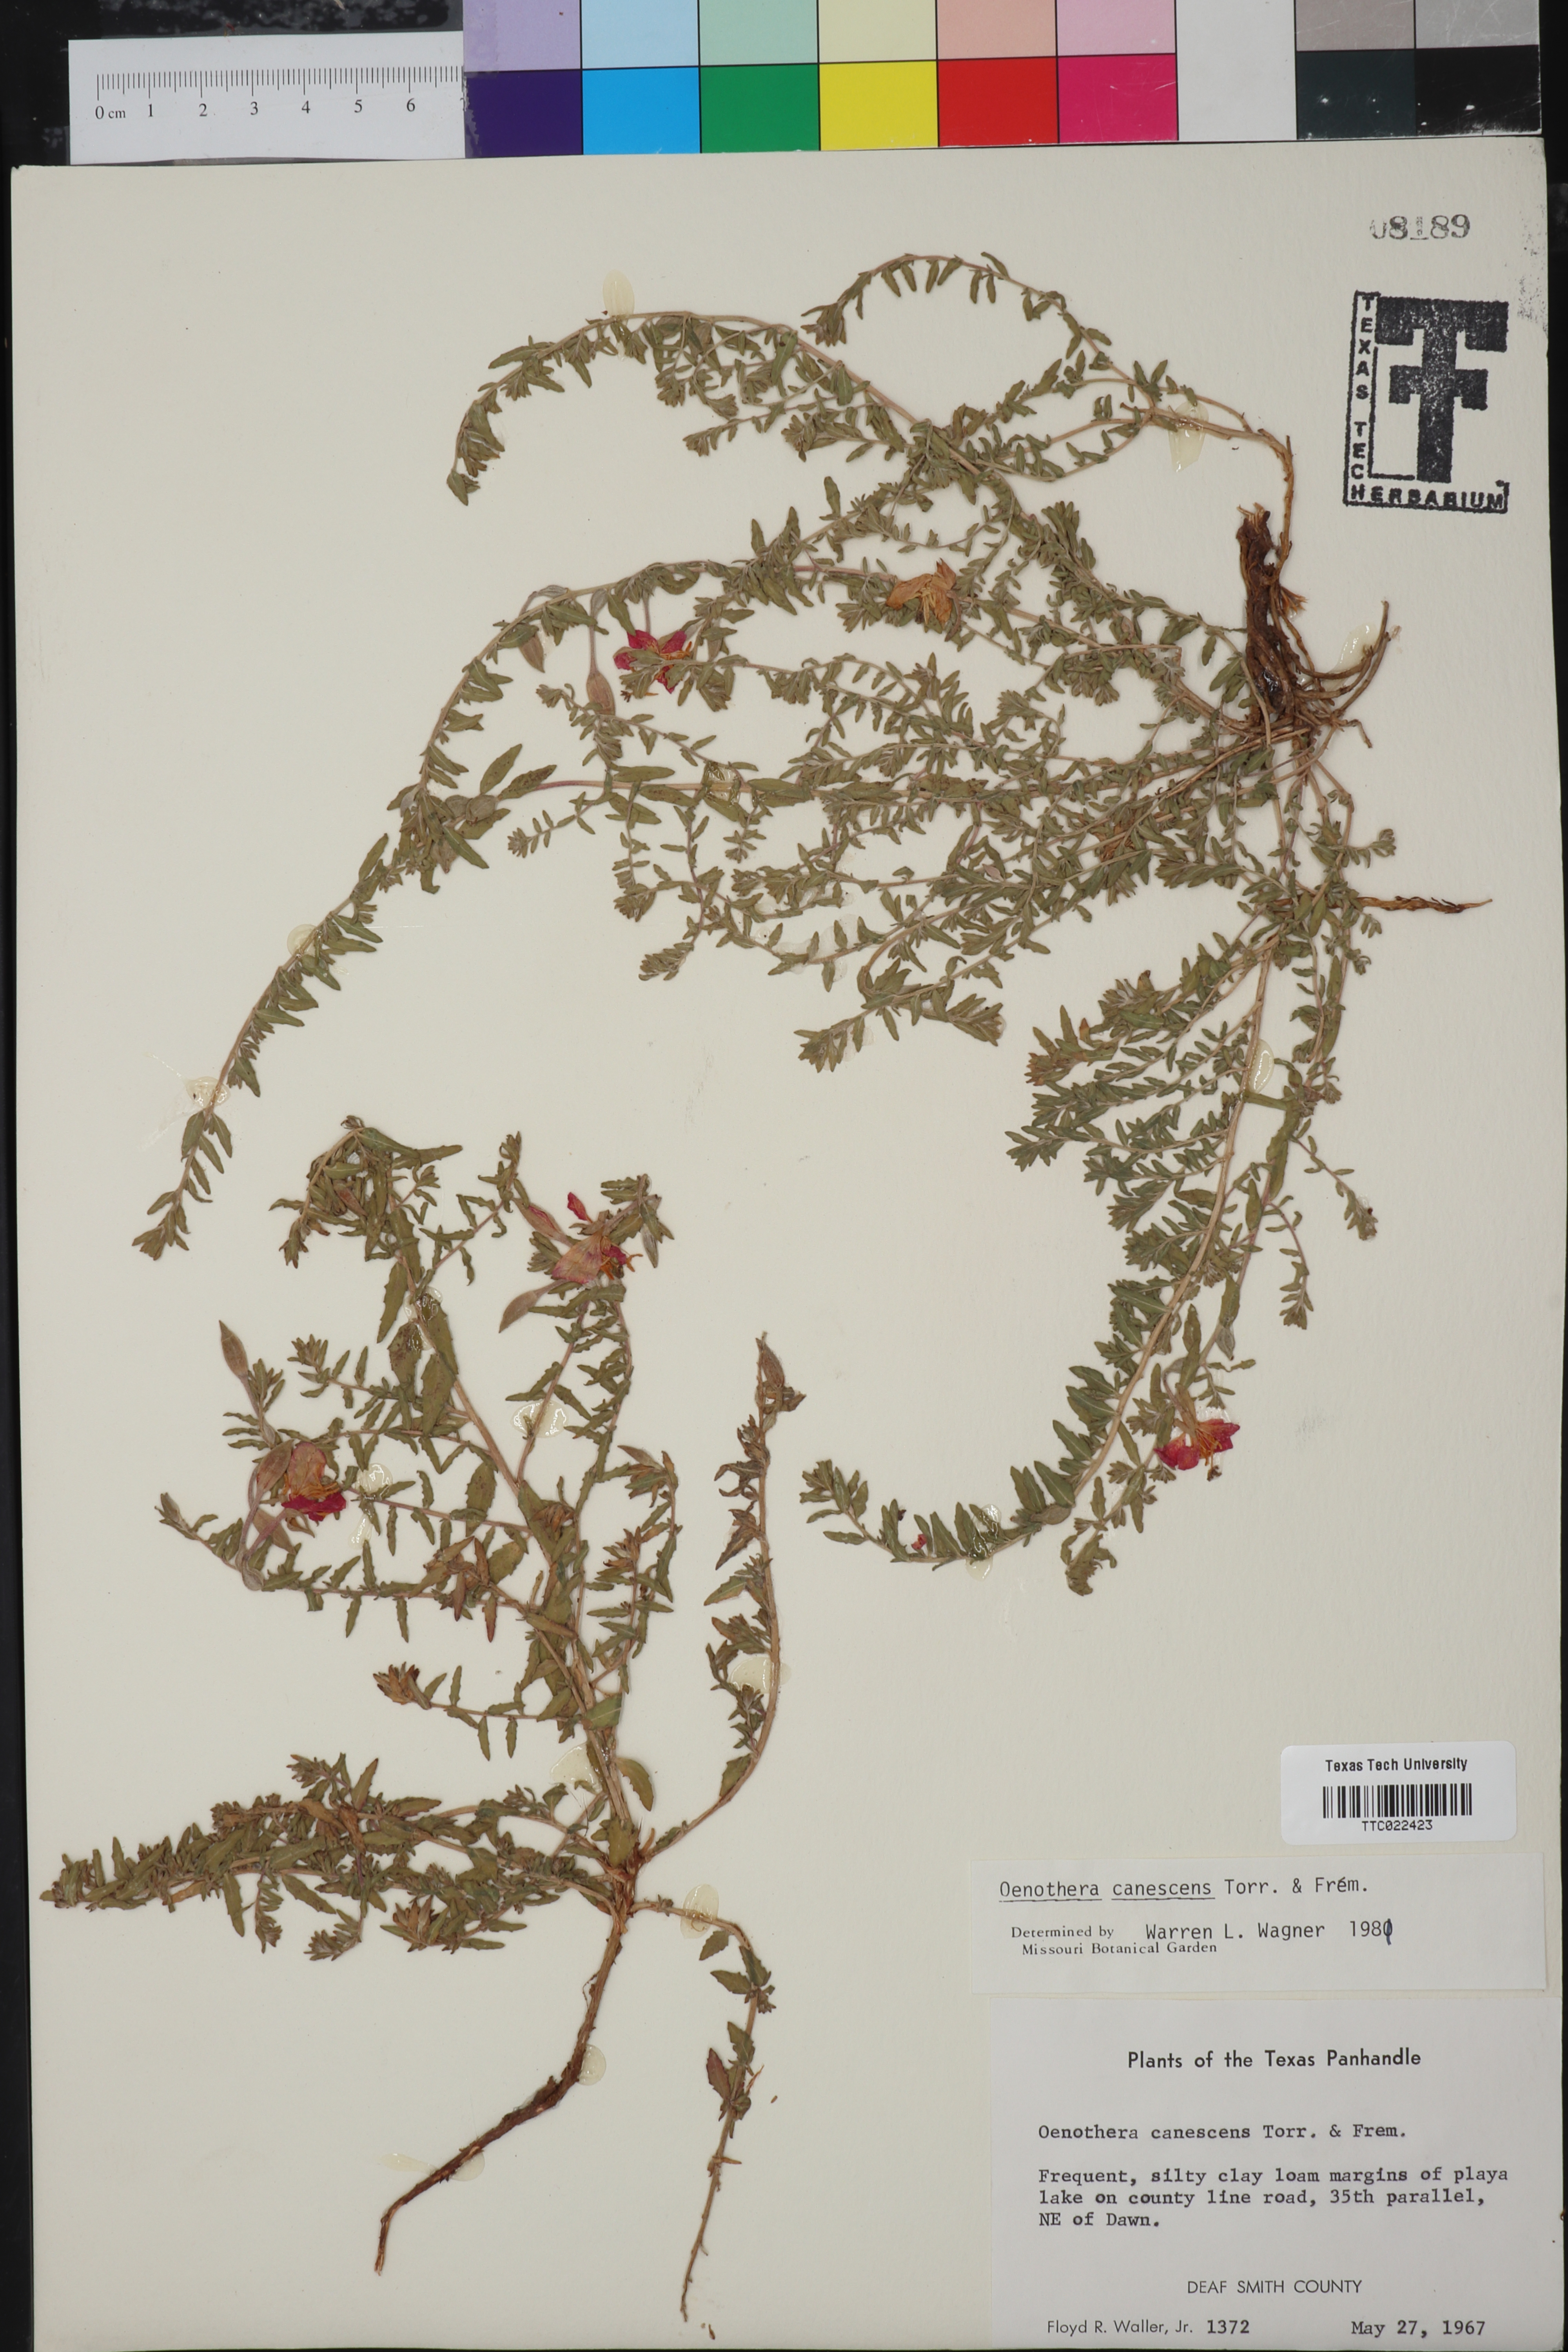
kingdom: Plantae
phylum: Tracheophyta
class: Magnoliopsida
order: Myrtales
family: Onagraceae
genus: Oenothera
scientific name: Oenothera canescens
